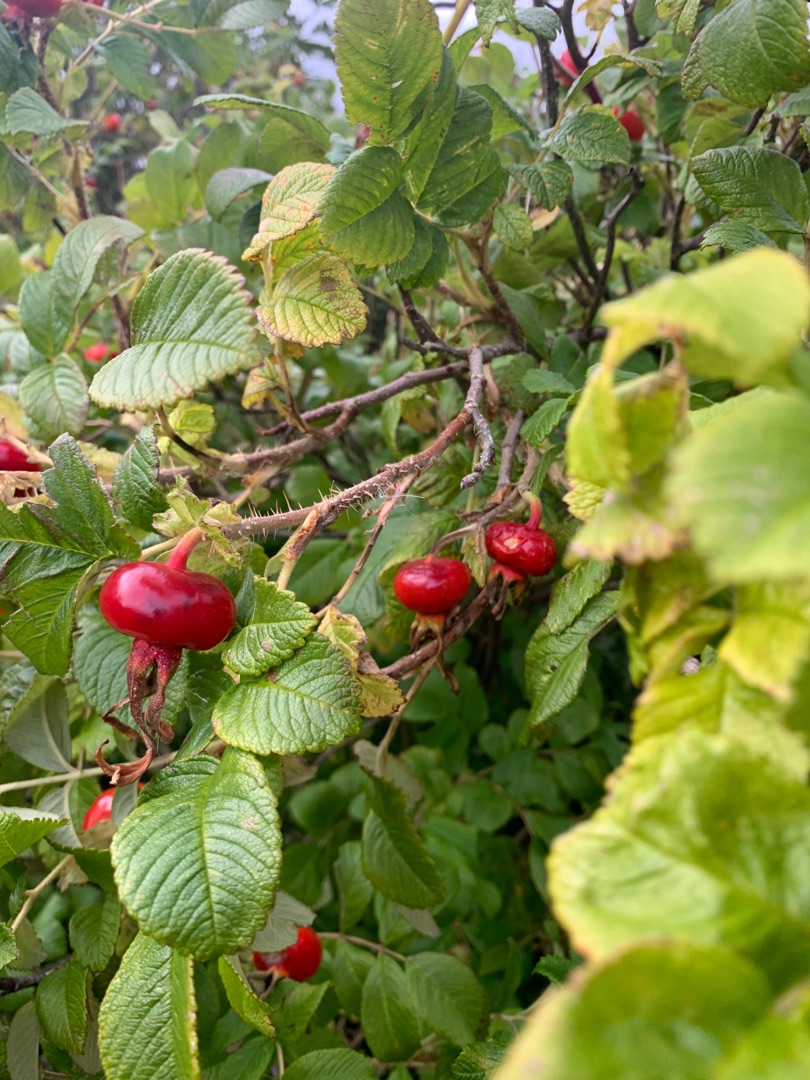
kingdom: Plantae
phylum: Tracheophyta
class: Magnoliopsida
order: Rosales
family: Rosaceae
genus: Rosa
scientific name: Rosa rugosa
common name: Rynket rose
